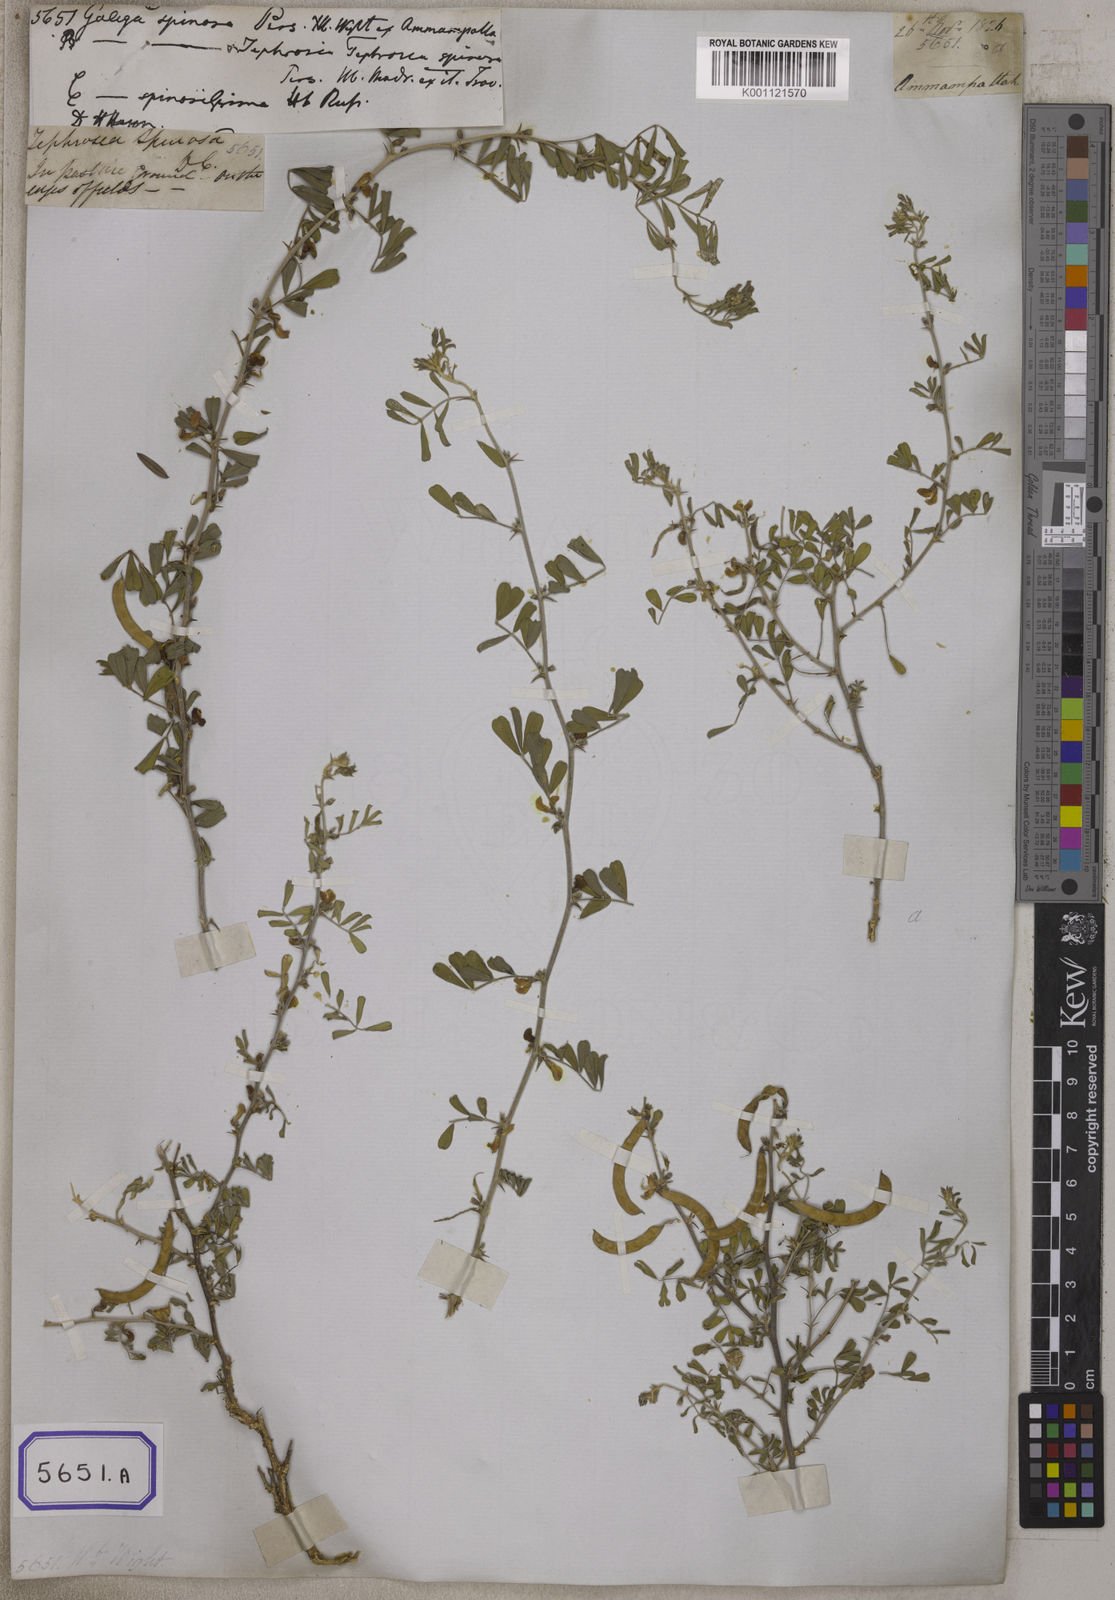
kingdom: Plantae
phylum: Tracheophyta
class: Magnoliopsida
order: Fabales
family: Fabaceae
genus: Galega
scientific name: Galega
